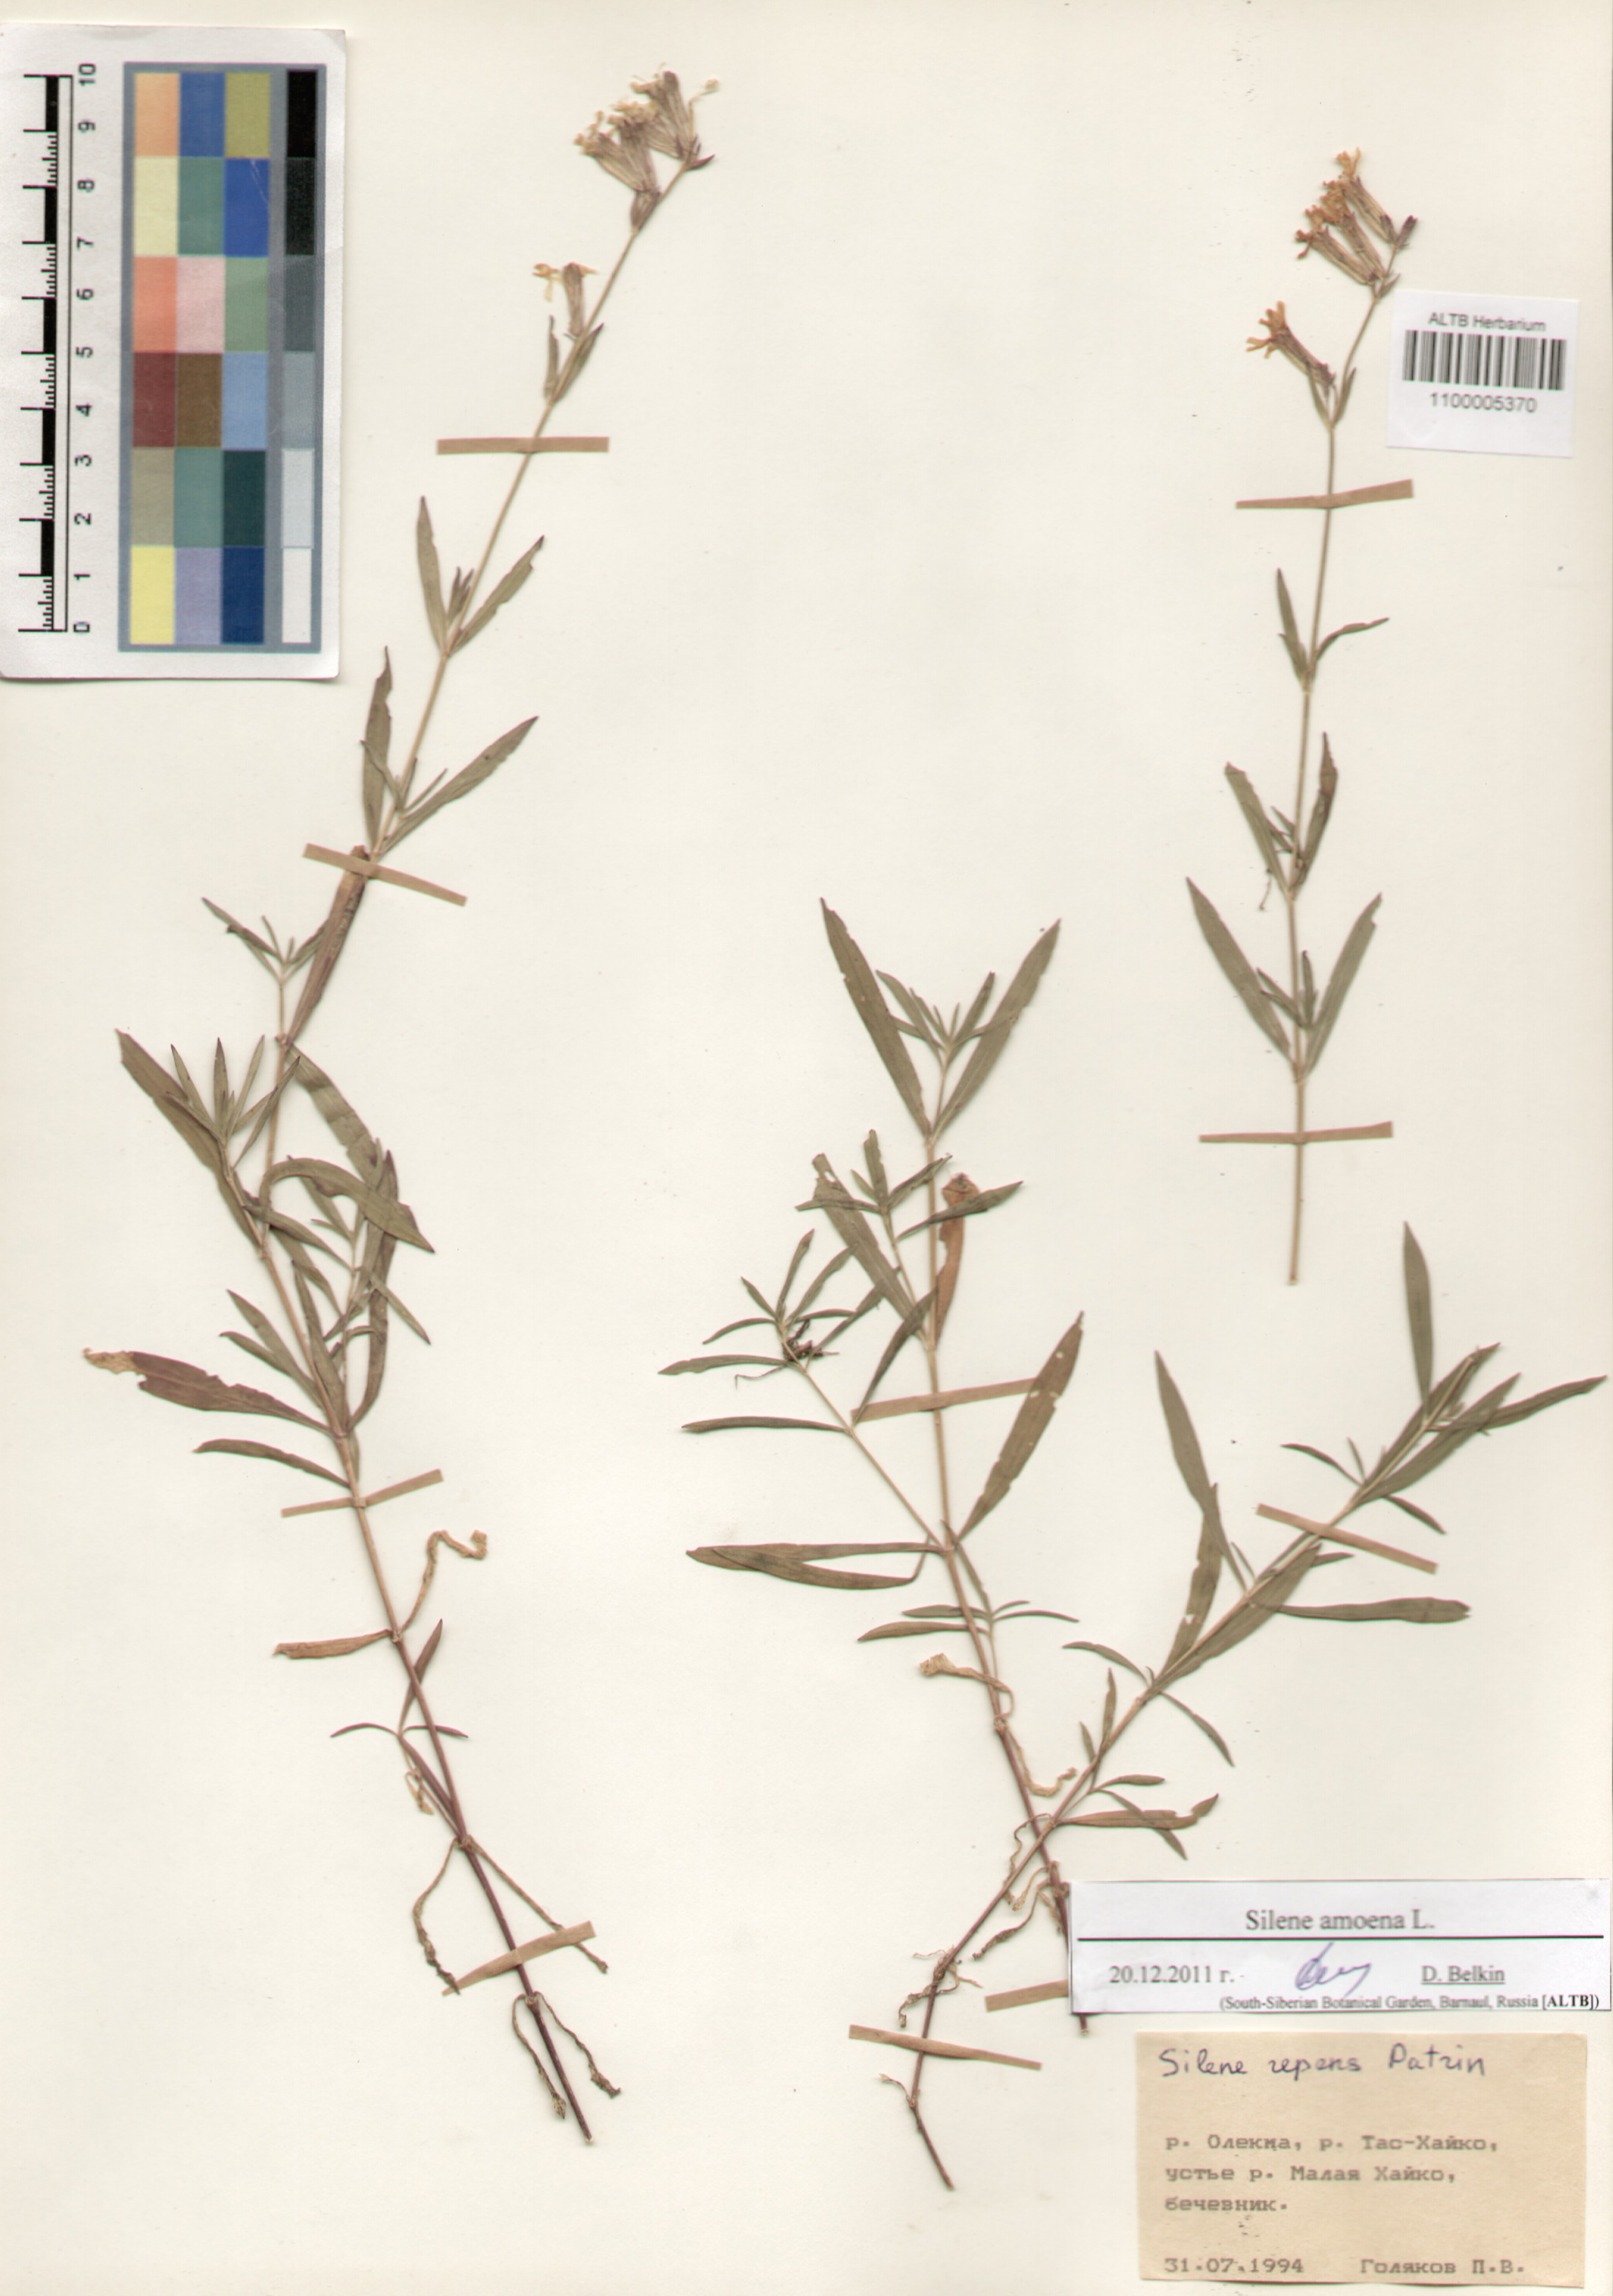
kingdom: Plantae
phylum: Tracheophyta
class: Magnoliopsida
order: Caryophyllales
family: Caryophyllaceae
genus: Silene
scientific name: Silene amoena
